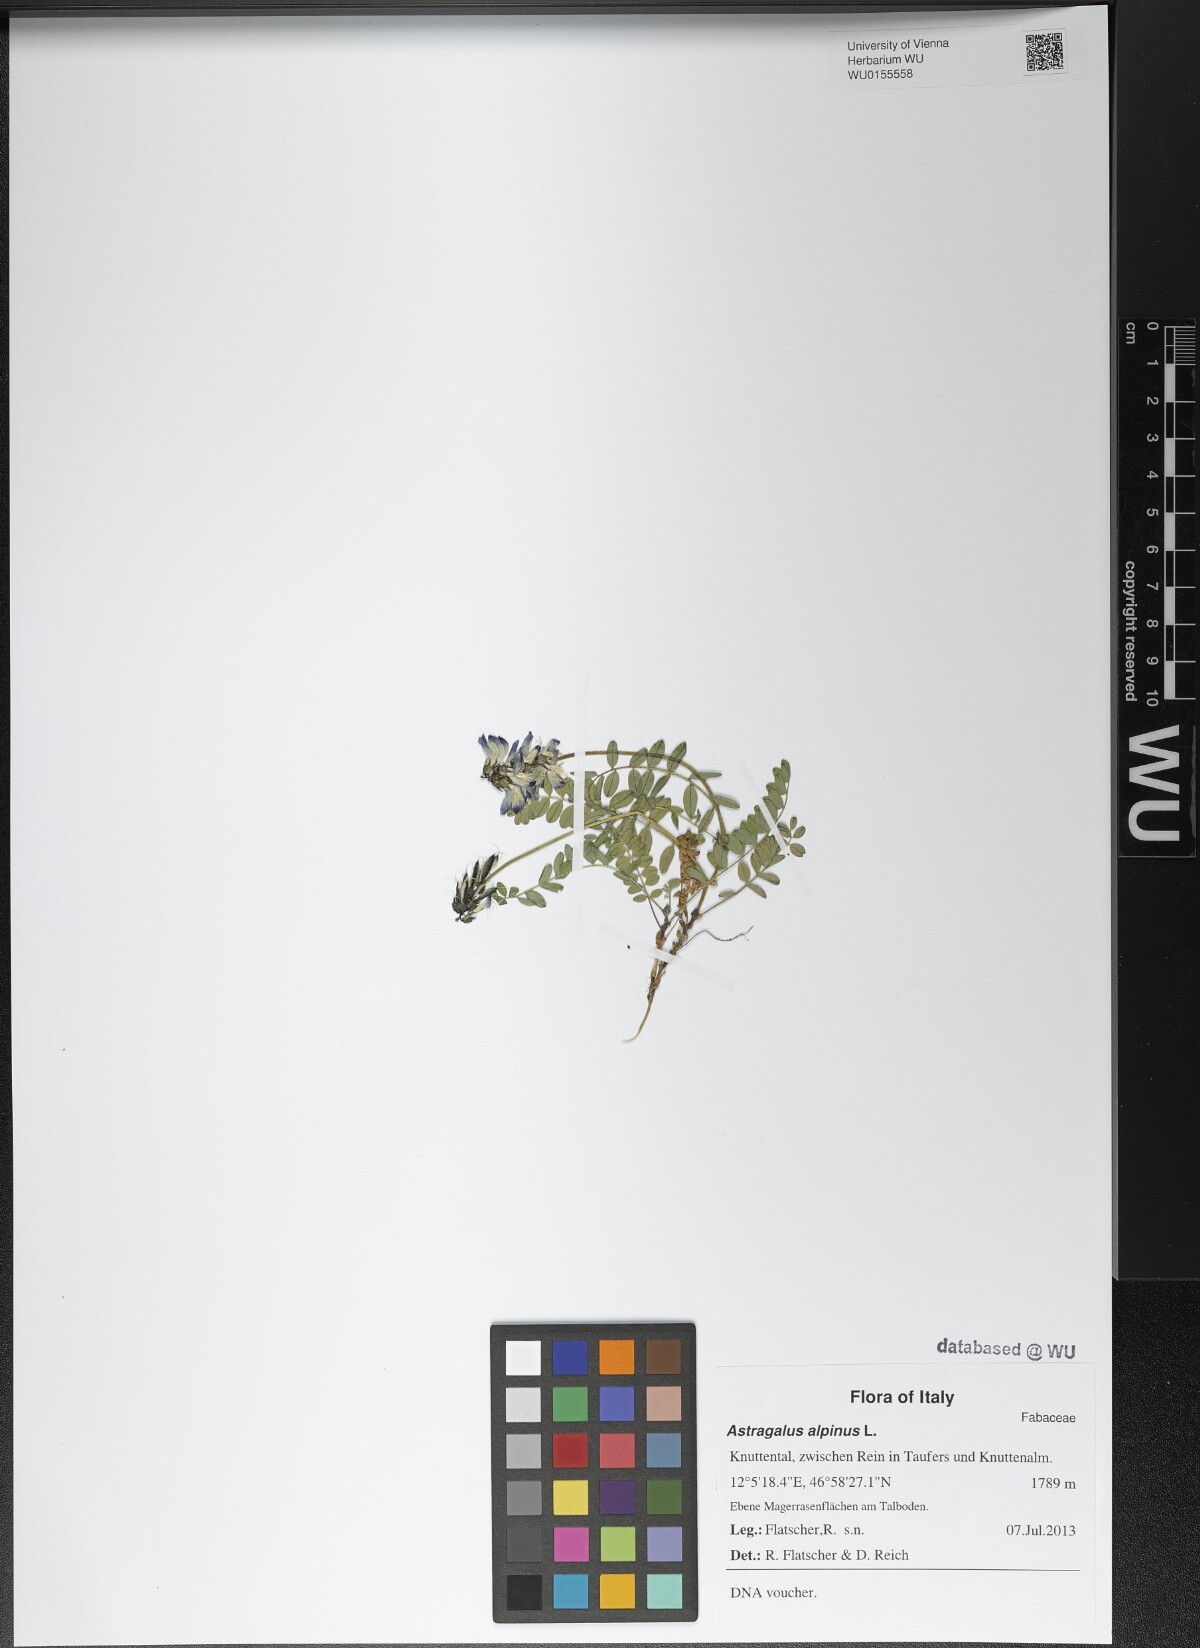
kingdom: Plantae
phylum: Tracheophyta
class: Magnoliopsida
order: Fabales
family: Fabaceae
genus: Astragalus
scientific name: Astragalus alpinus
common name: Alpine milk-vetch
